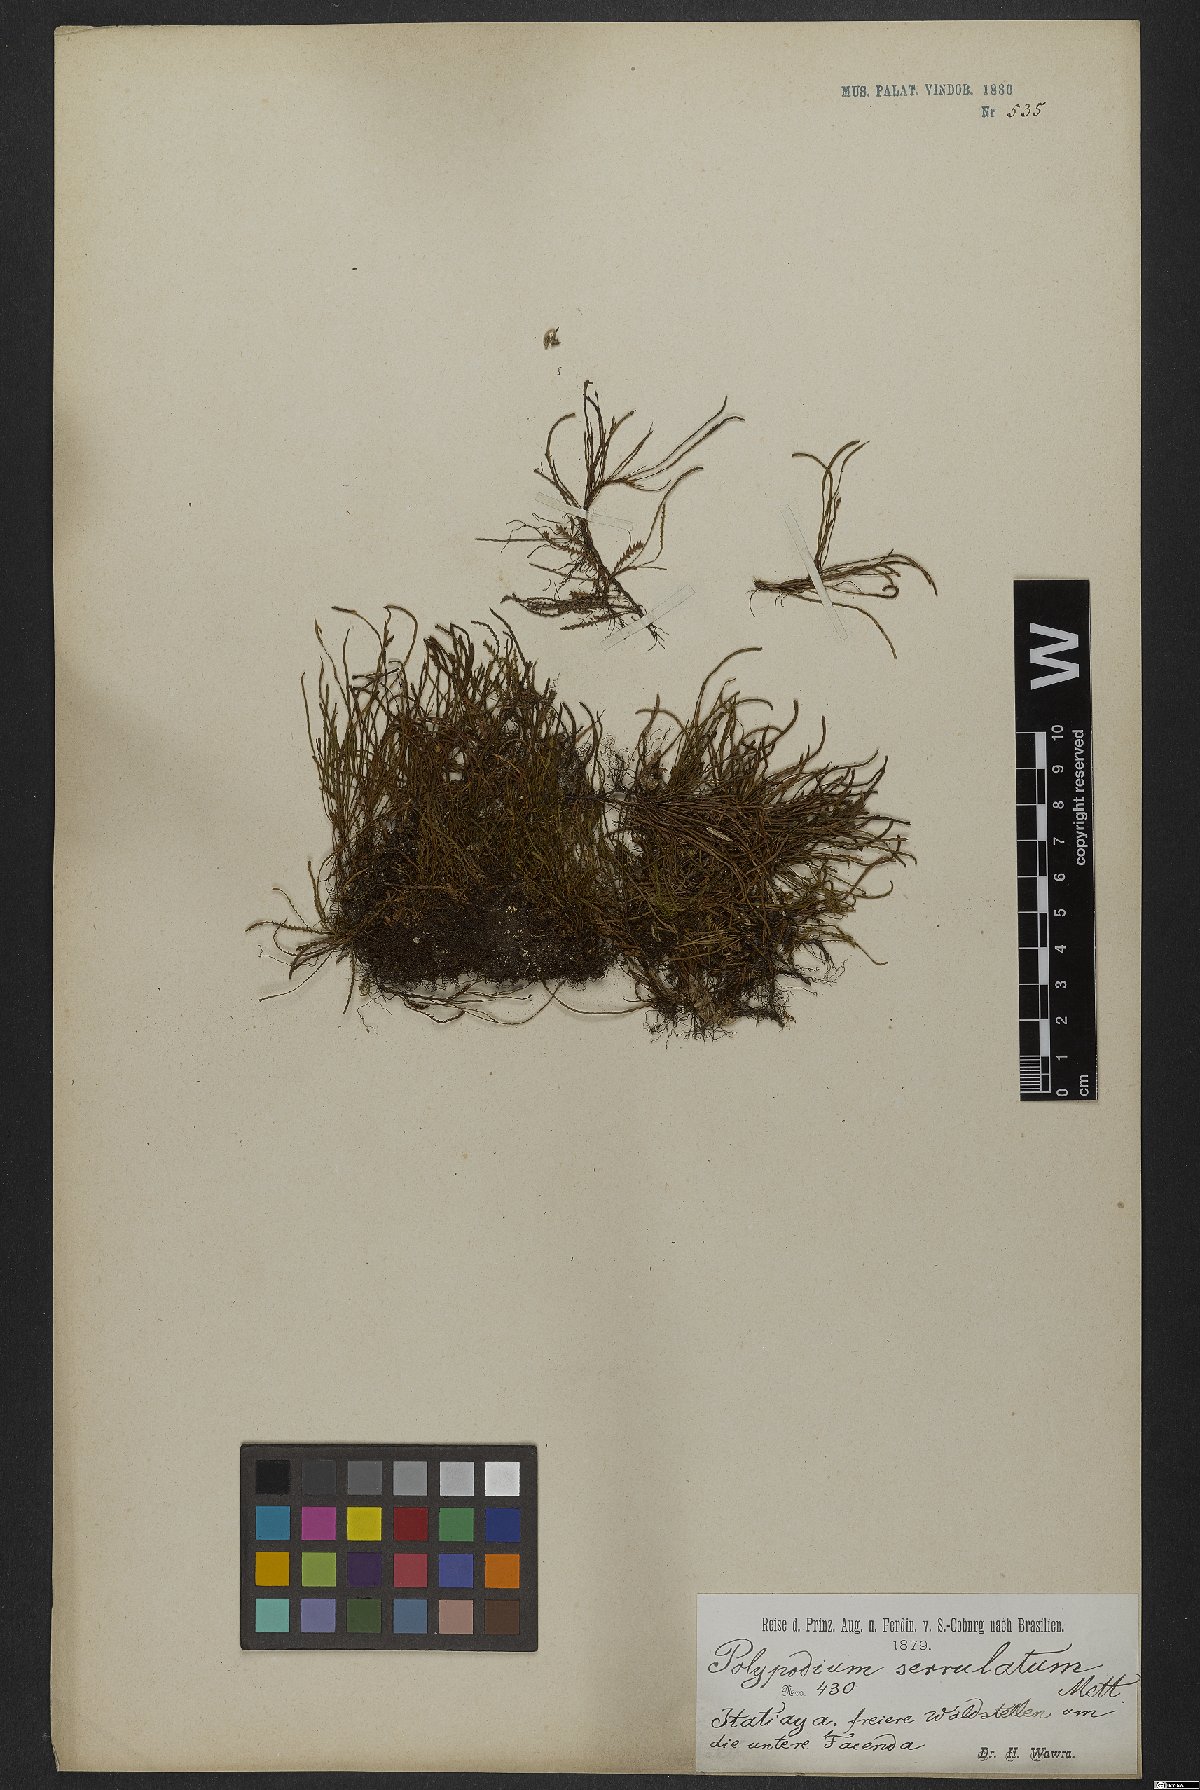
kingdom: Plantae
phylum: Tracheophyta
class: Polypodiopsida
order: Polypodiales
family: Polypodiaceae
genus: Cochlidium
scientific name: Cochlidium serrulatum
